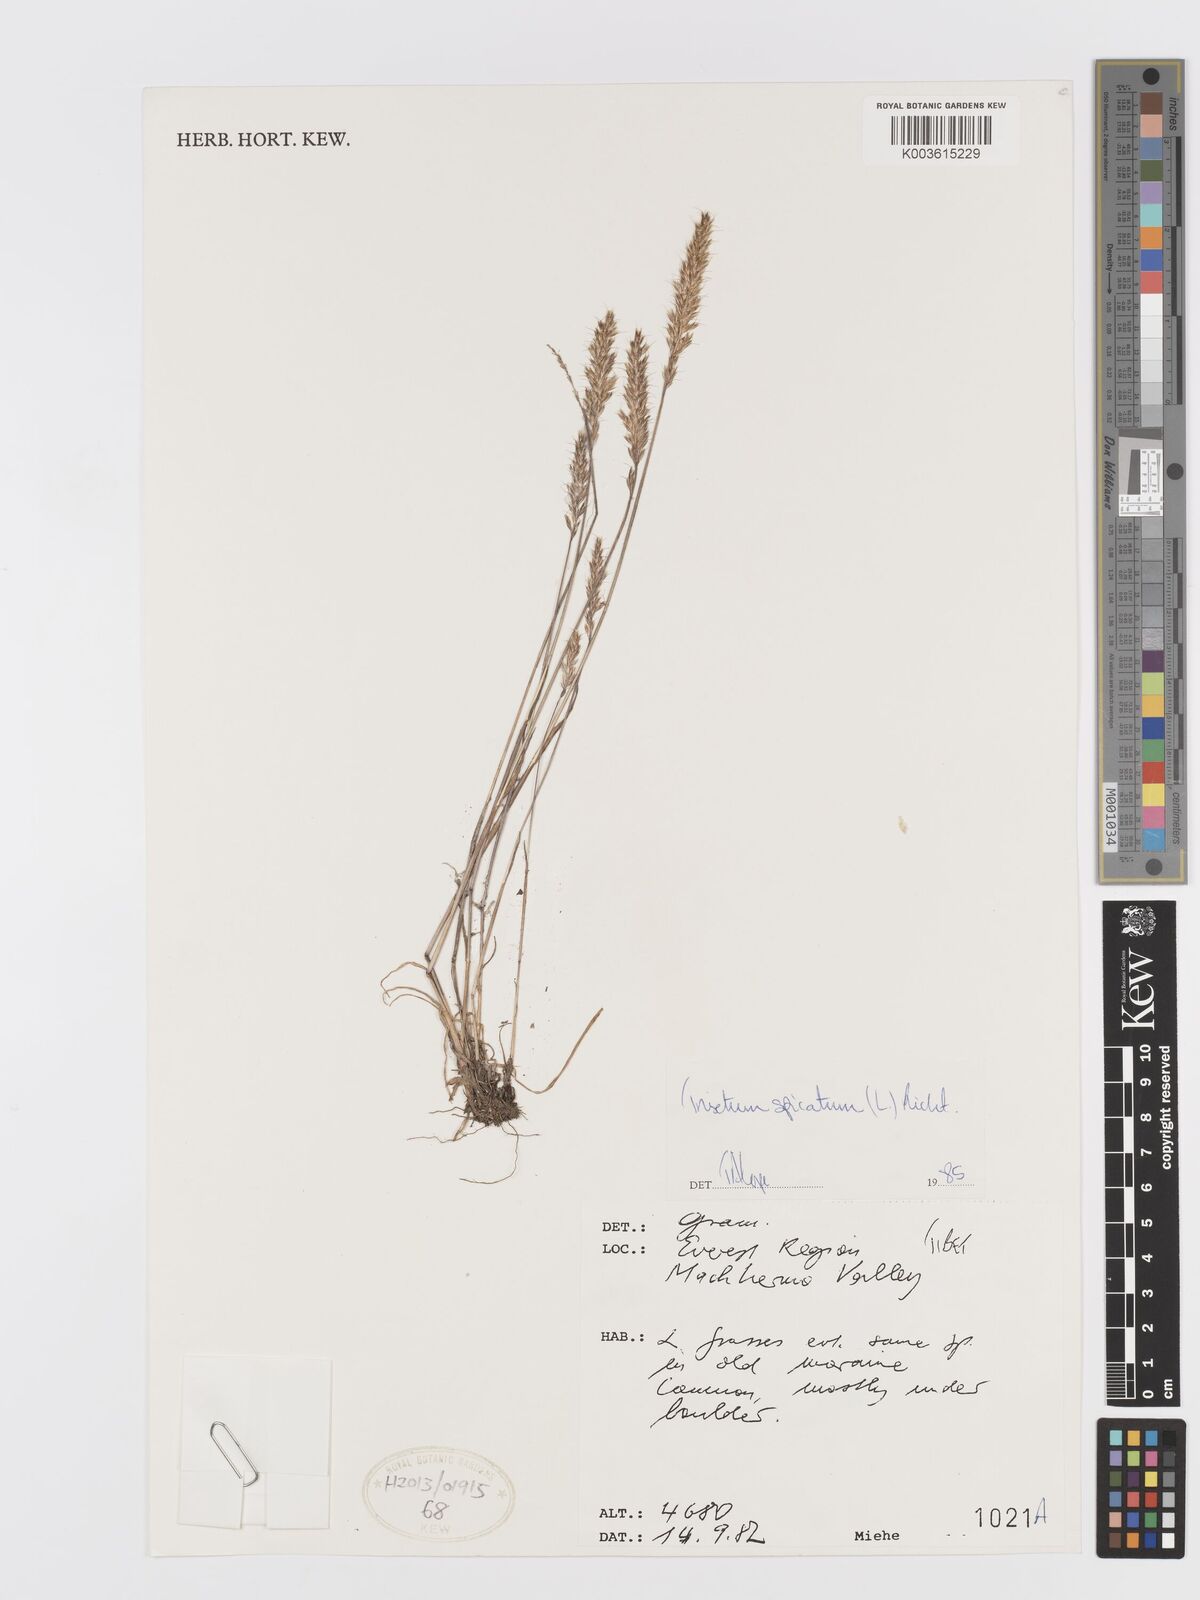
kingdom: Plantae
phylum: Tracheophyta
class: Liliopsida
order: Poales
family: Poaceae
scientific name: Poaceae
